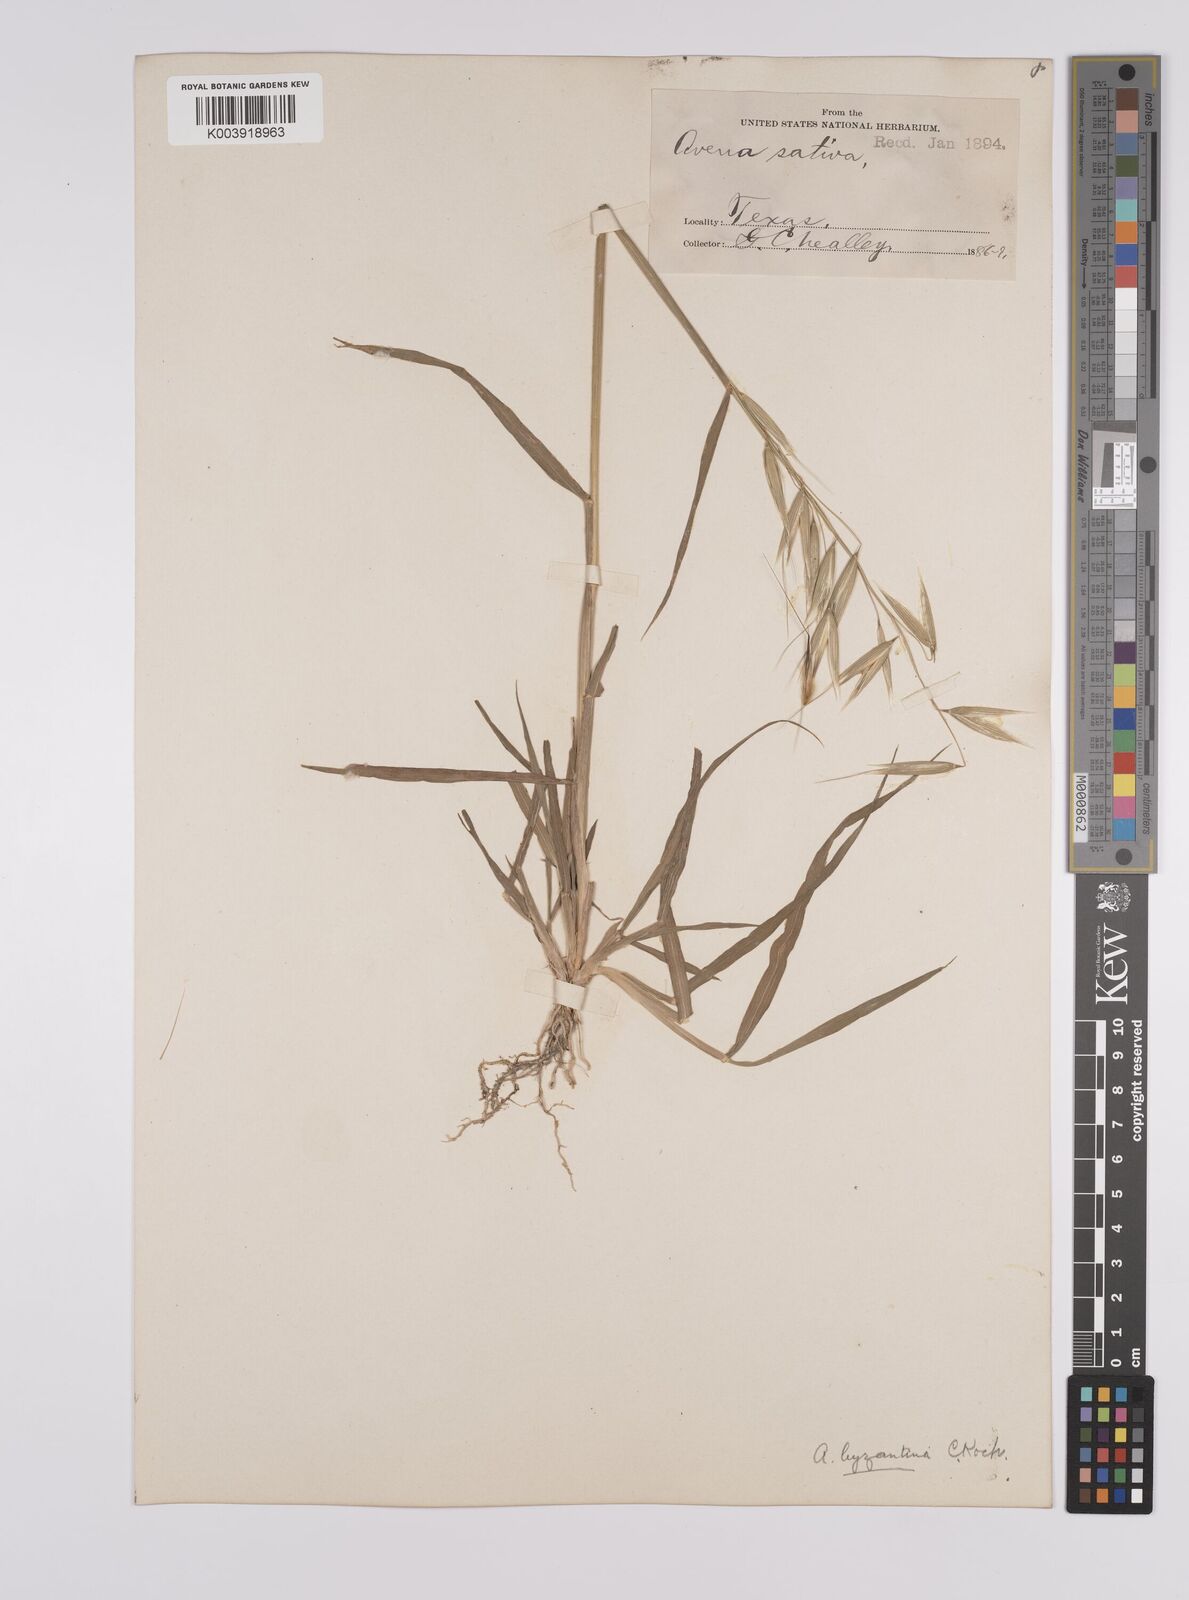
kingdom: Plantae
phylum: Tracheophyta
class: Liliopsida
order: Poales
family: Poaceae
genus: Avena
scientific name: Avena byzantina
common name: Algerian oat
